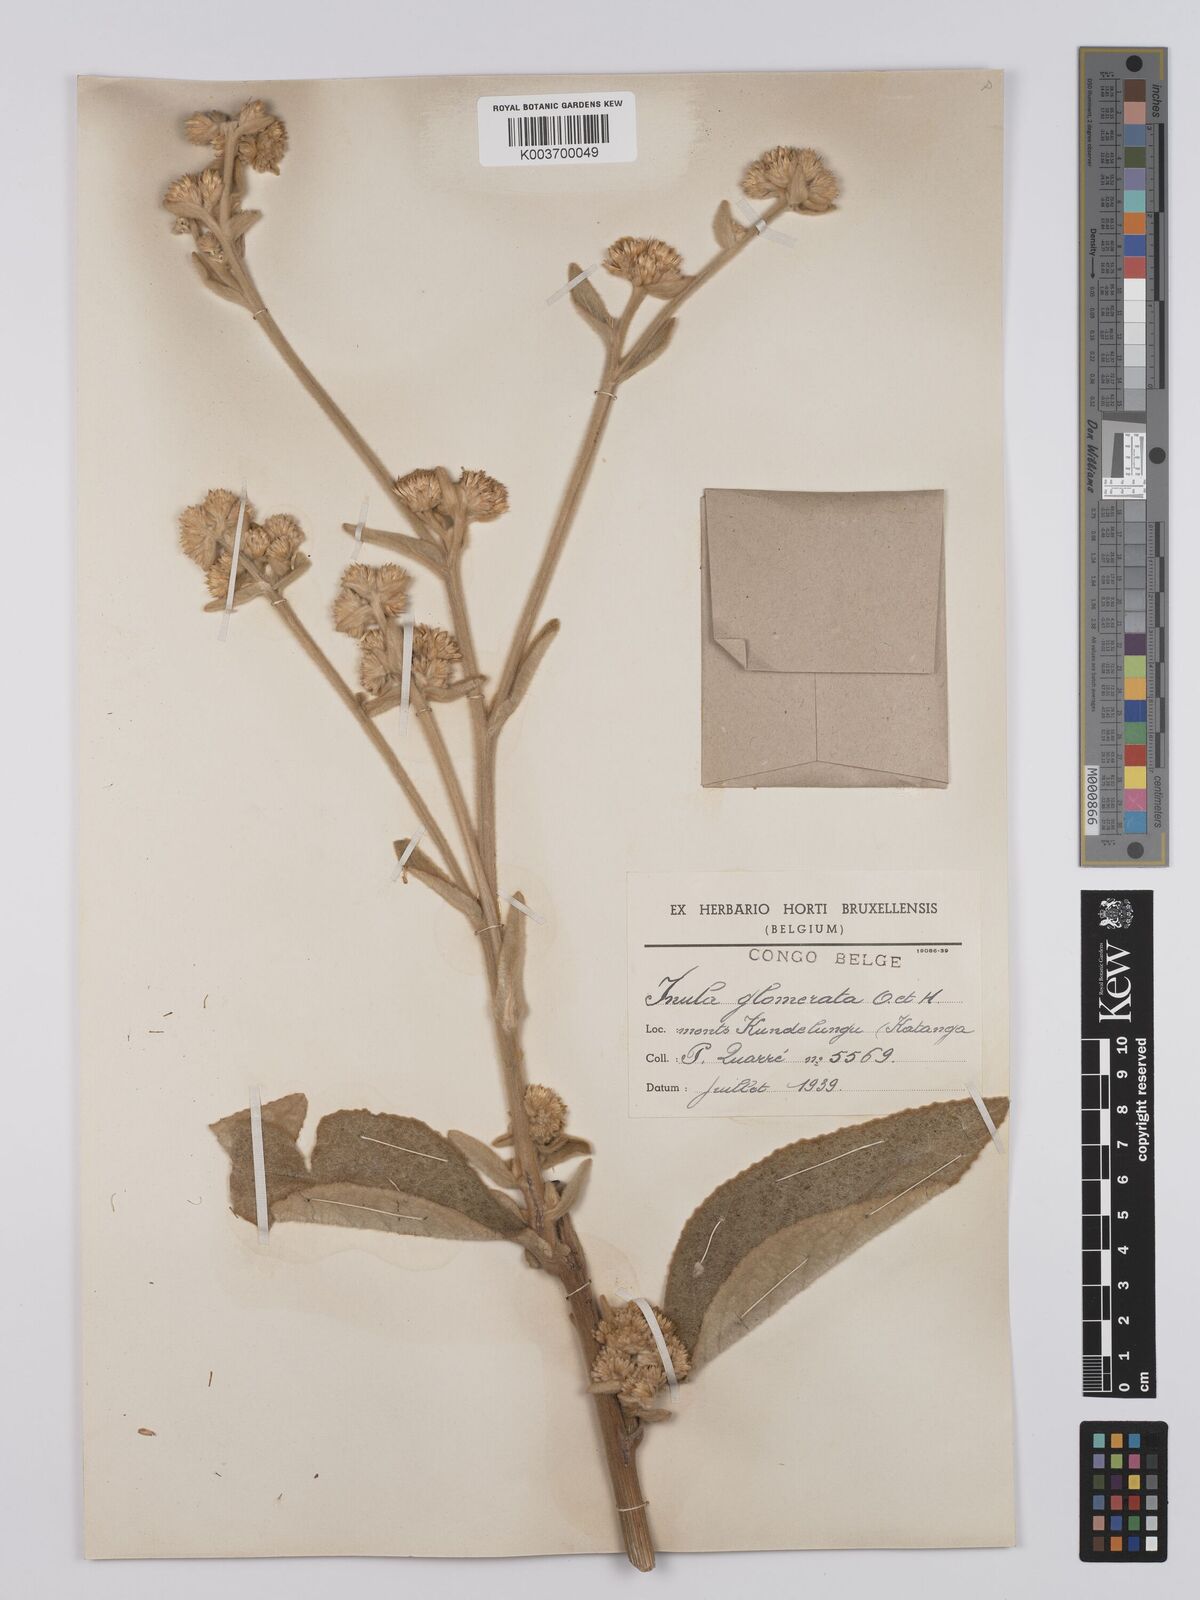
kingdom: Plantae
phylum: Tracheophyta
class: Magnoliopsida
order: Asterales
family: Asteraceae
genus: Inula
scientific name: Inula glomerata
